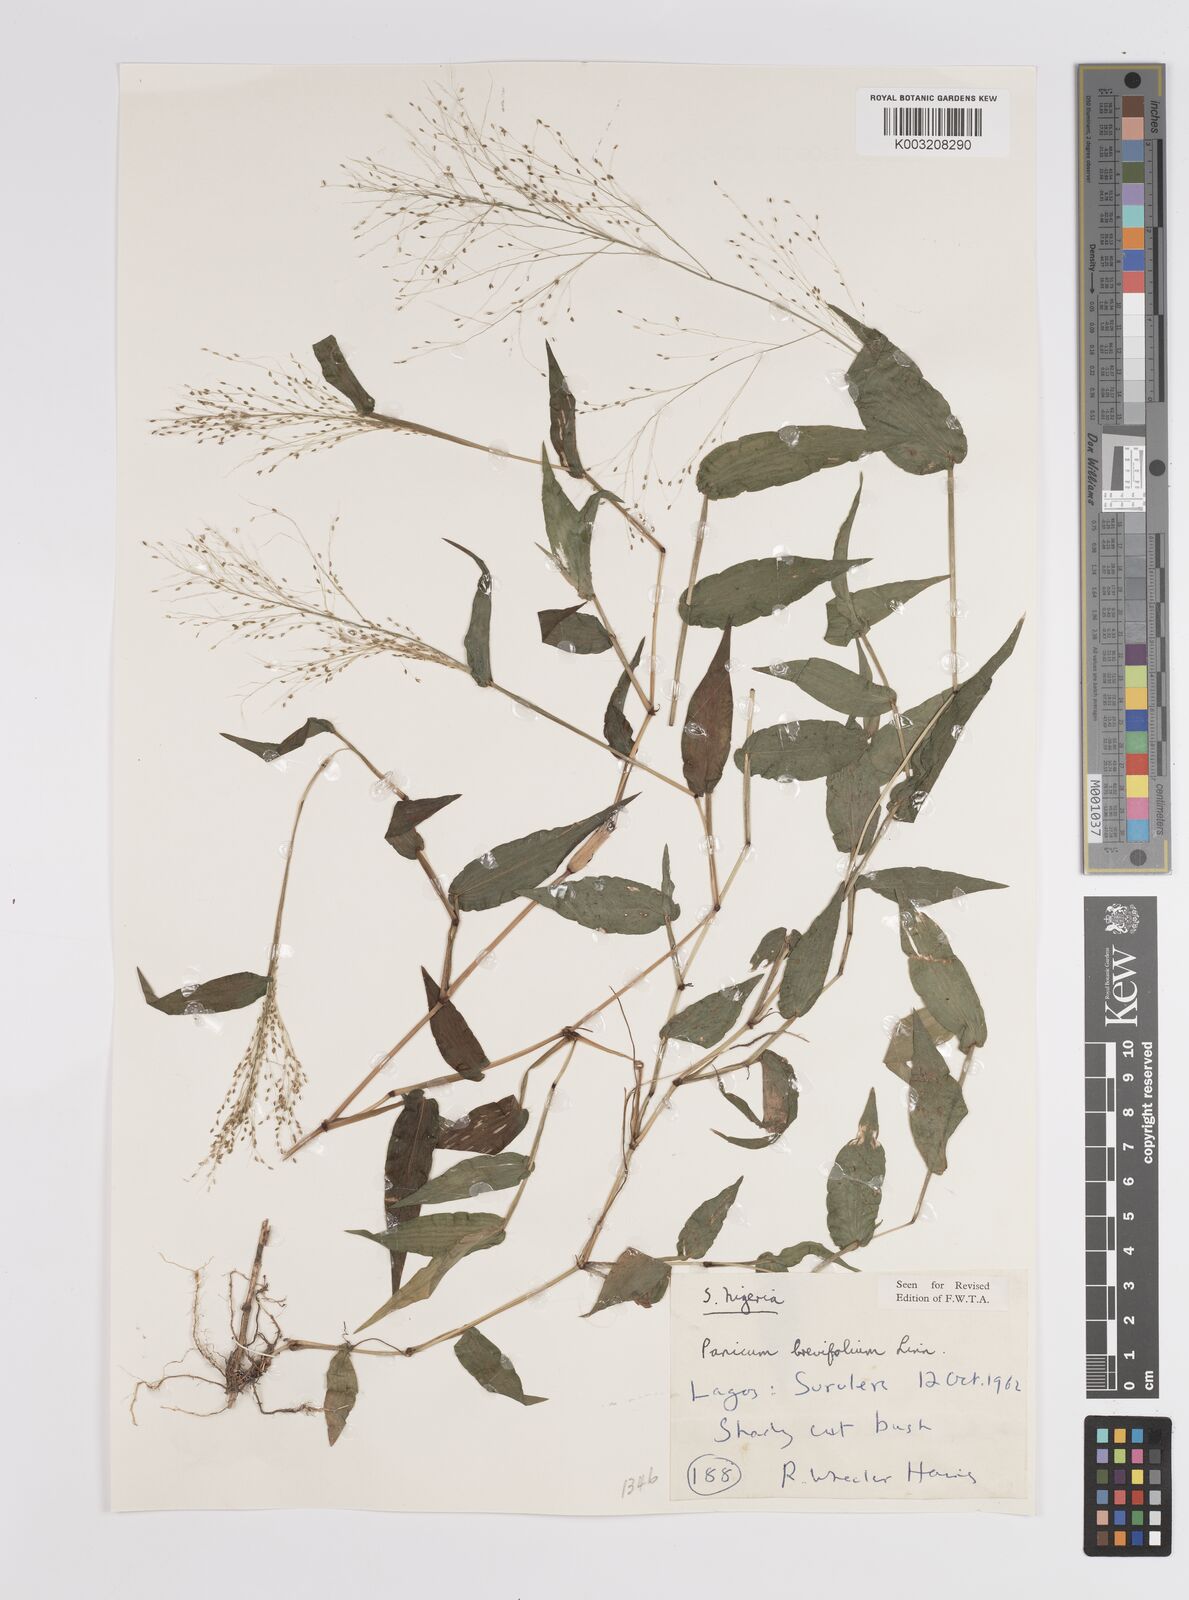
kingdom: Plantae
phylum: Tracheophyta
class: Liliopsida
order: Poales
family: Poaceae
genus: Panicum
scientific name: Panicum brevifolium
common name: Shortleaf panic grass
